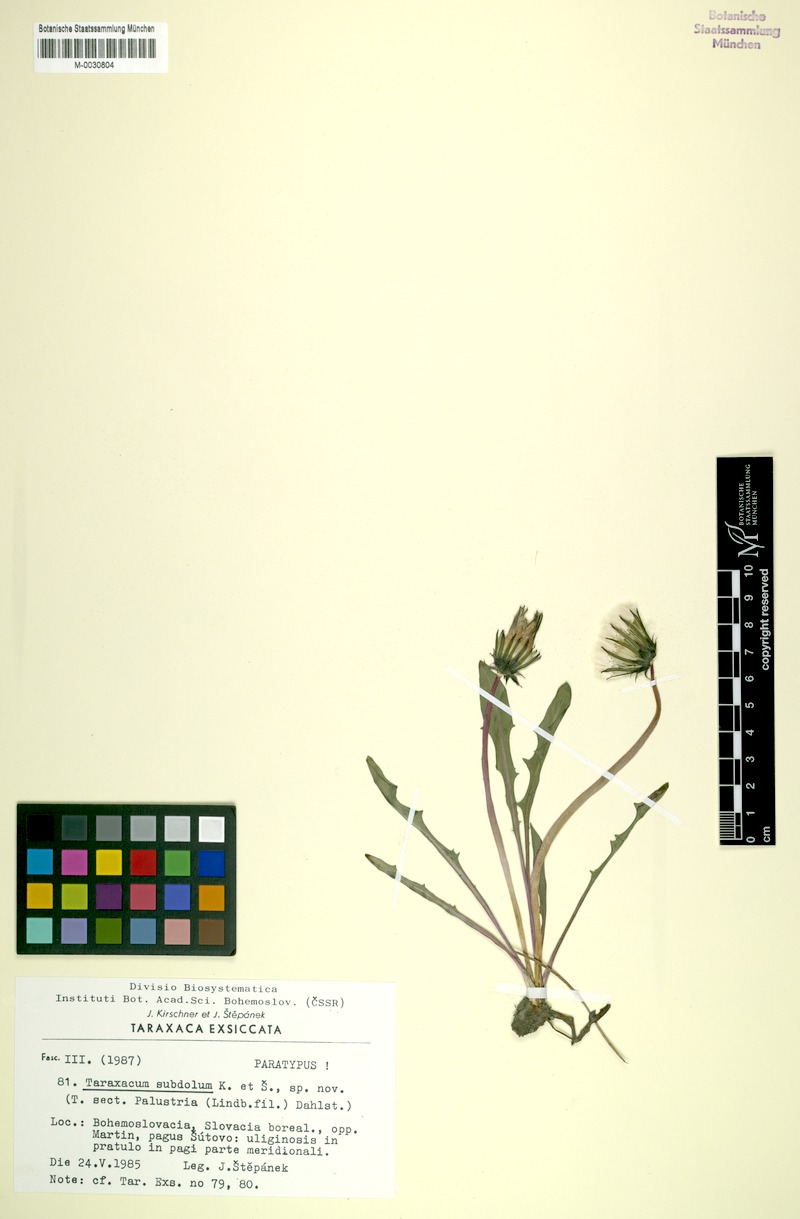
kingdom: Plantae
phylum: Tracheophyta
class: Magnoliopsida
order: Asterales
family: Asteraceae
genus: Taraxacum
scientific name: Taraxacum subdolum
